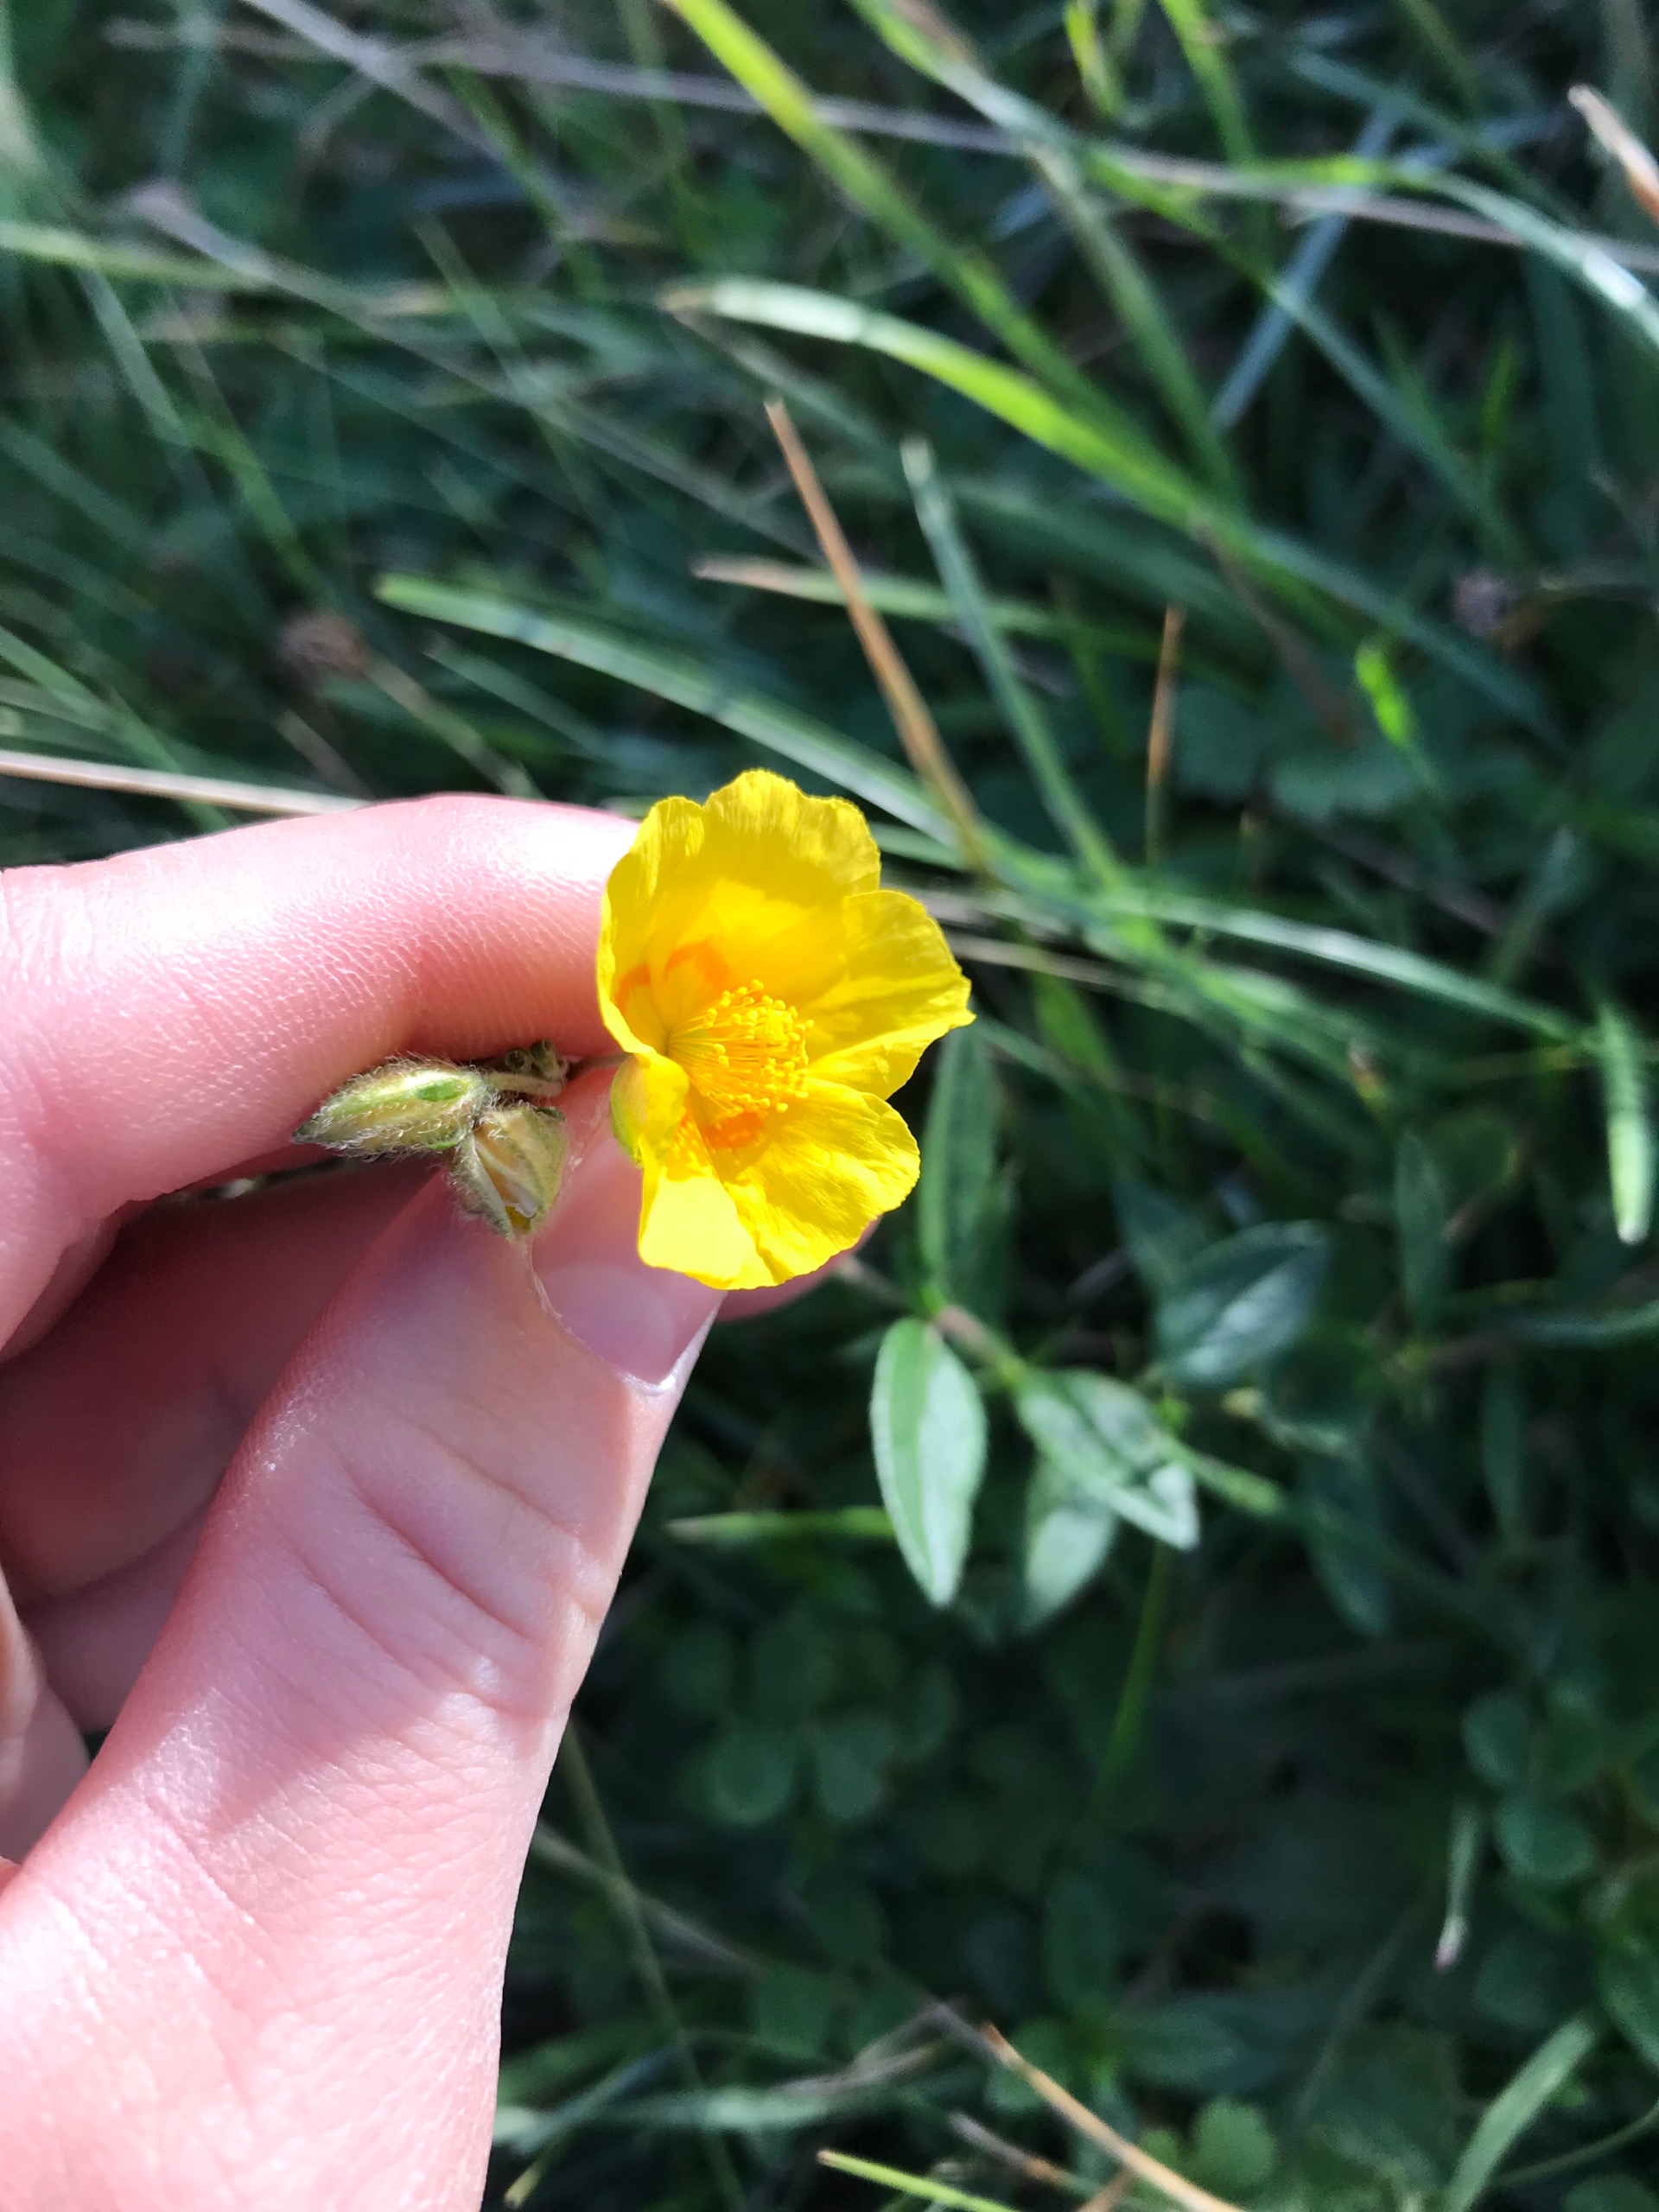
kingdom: Plantae
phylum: Tracheophyta
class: Magnoliopsida
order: Malvales
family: Cistaceae
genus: Helianthemum
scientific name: Helianthemum nummularium
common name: Soløje
